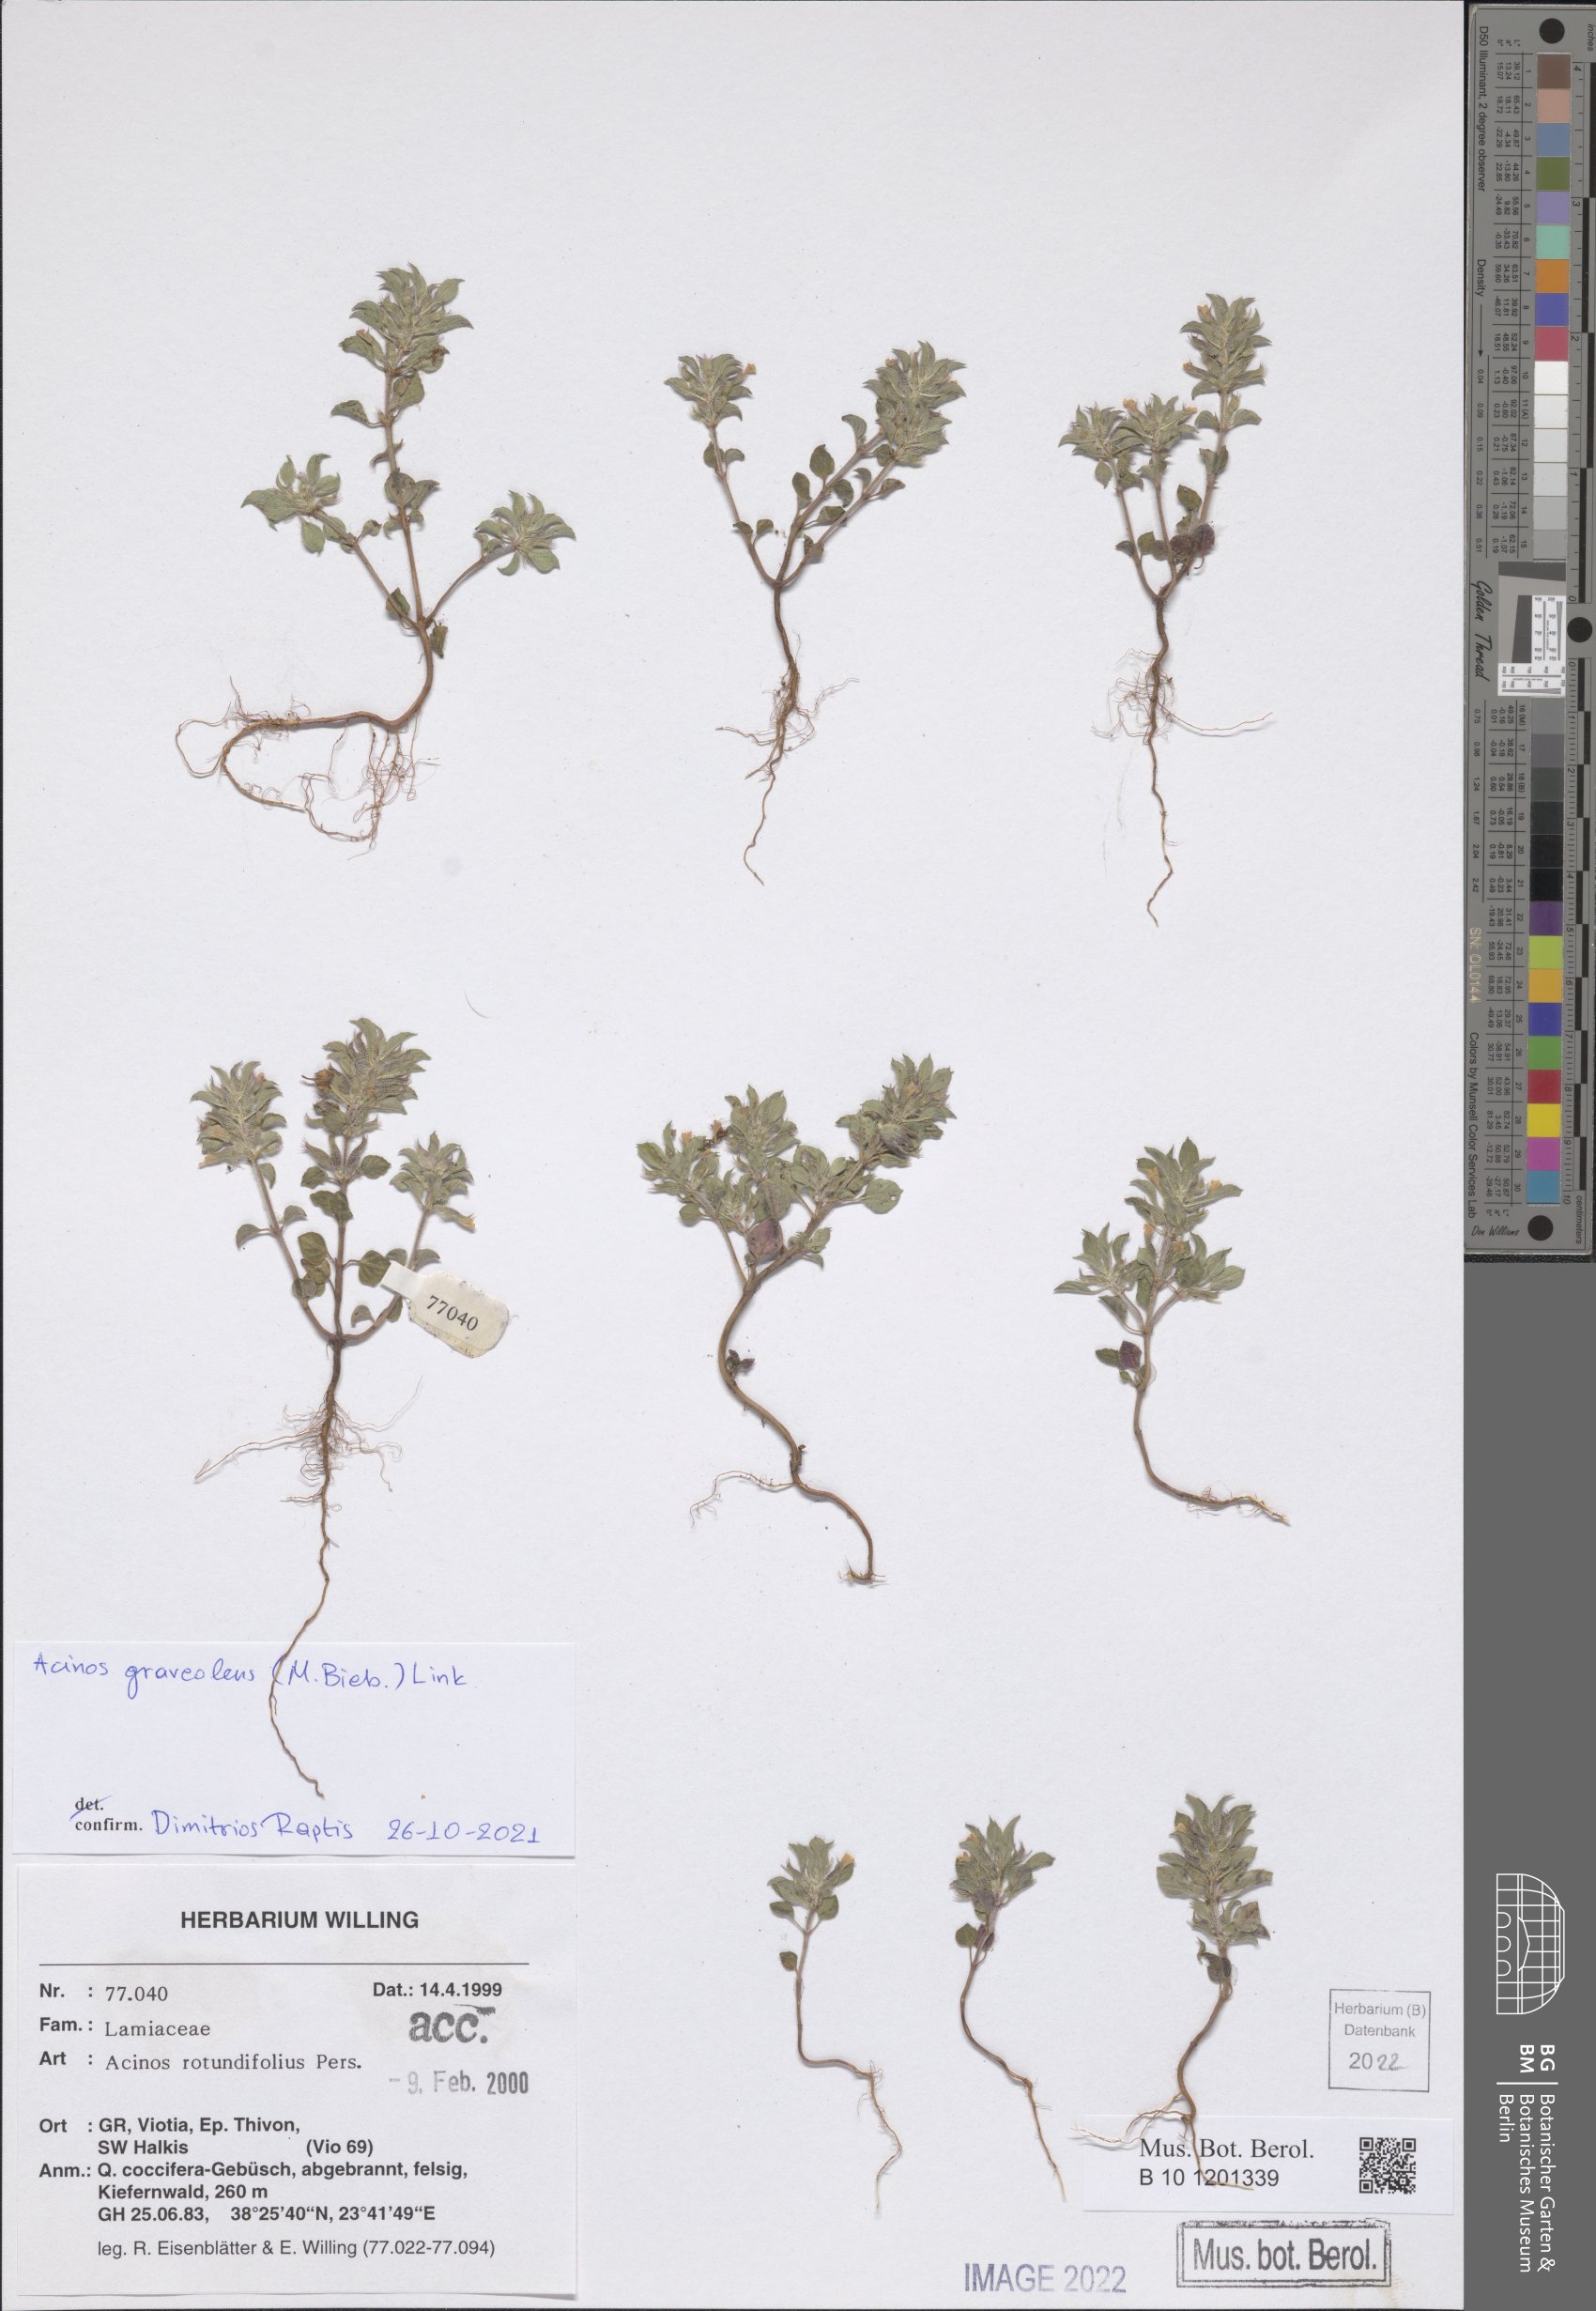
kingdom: Plantae
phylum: Tracheophyta
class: Magnoliopsida
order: Lamiales
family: Lamiaceae
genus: Clinopodium
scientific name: Clinopodium graveolens
